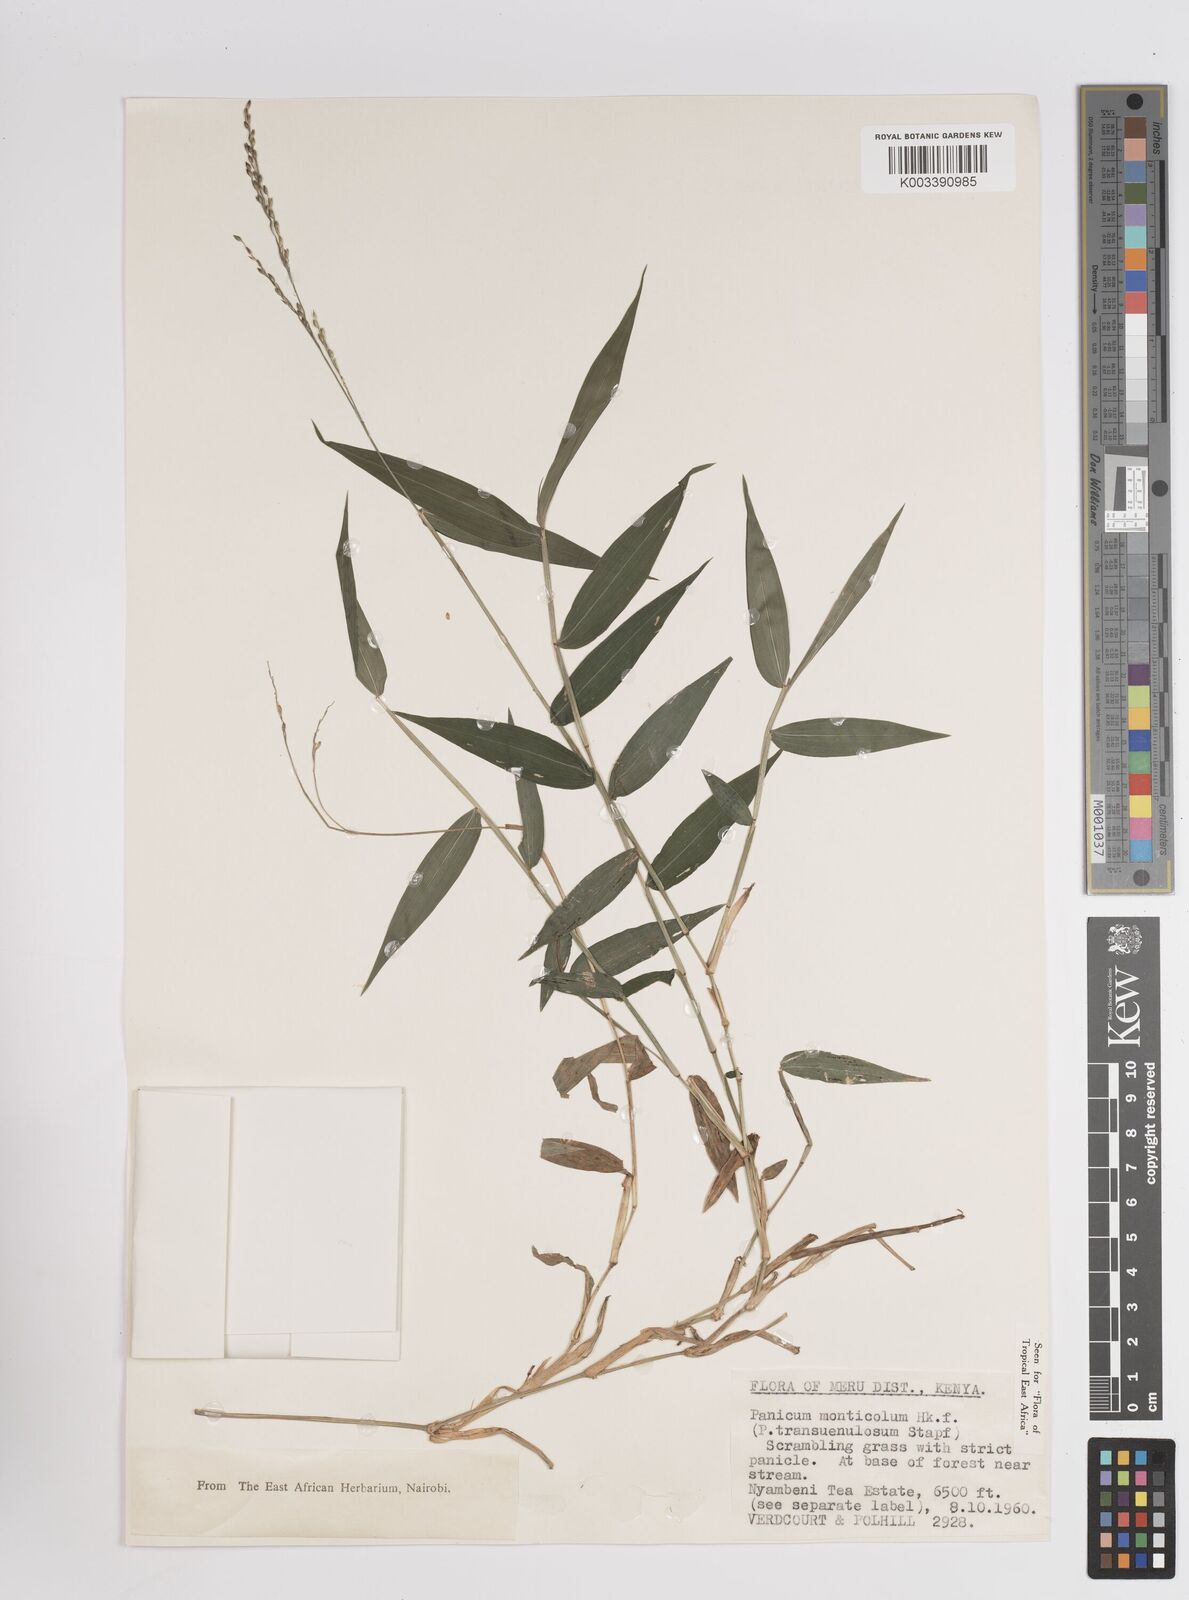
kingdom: Plantae
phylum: Tracheophyta
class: Liliopsida
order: Poales
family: Poaceae
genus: Panicum
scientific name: Panicum monticola
